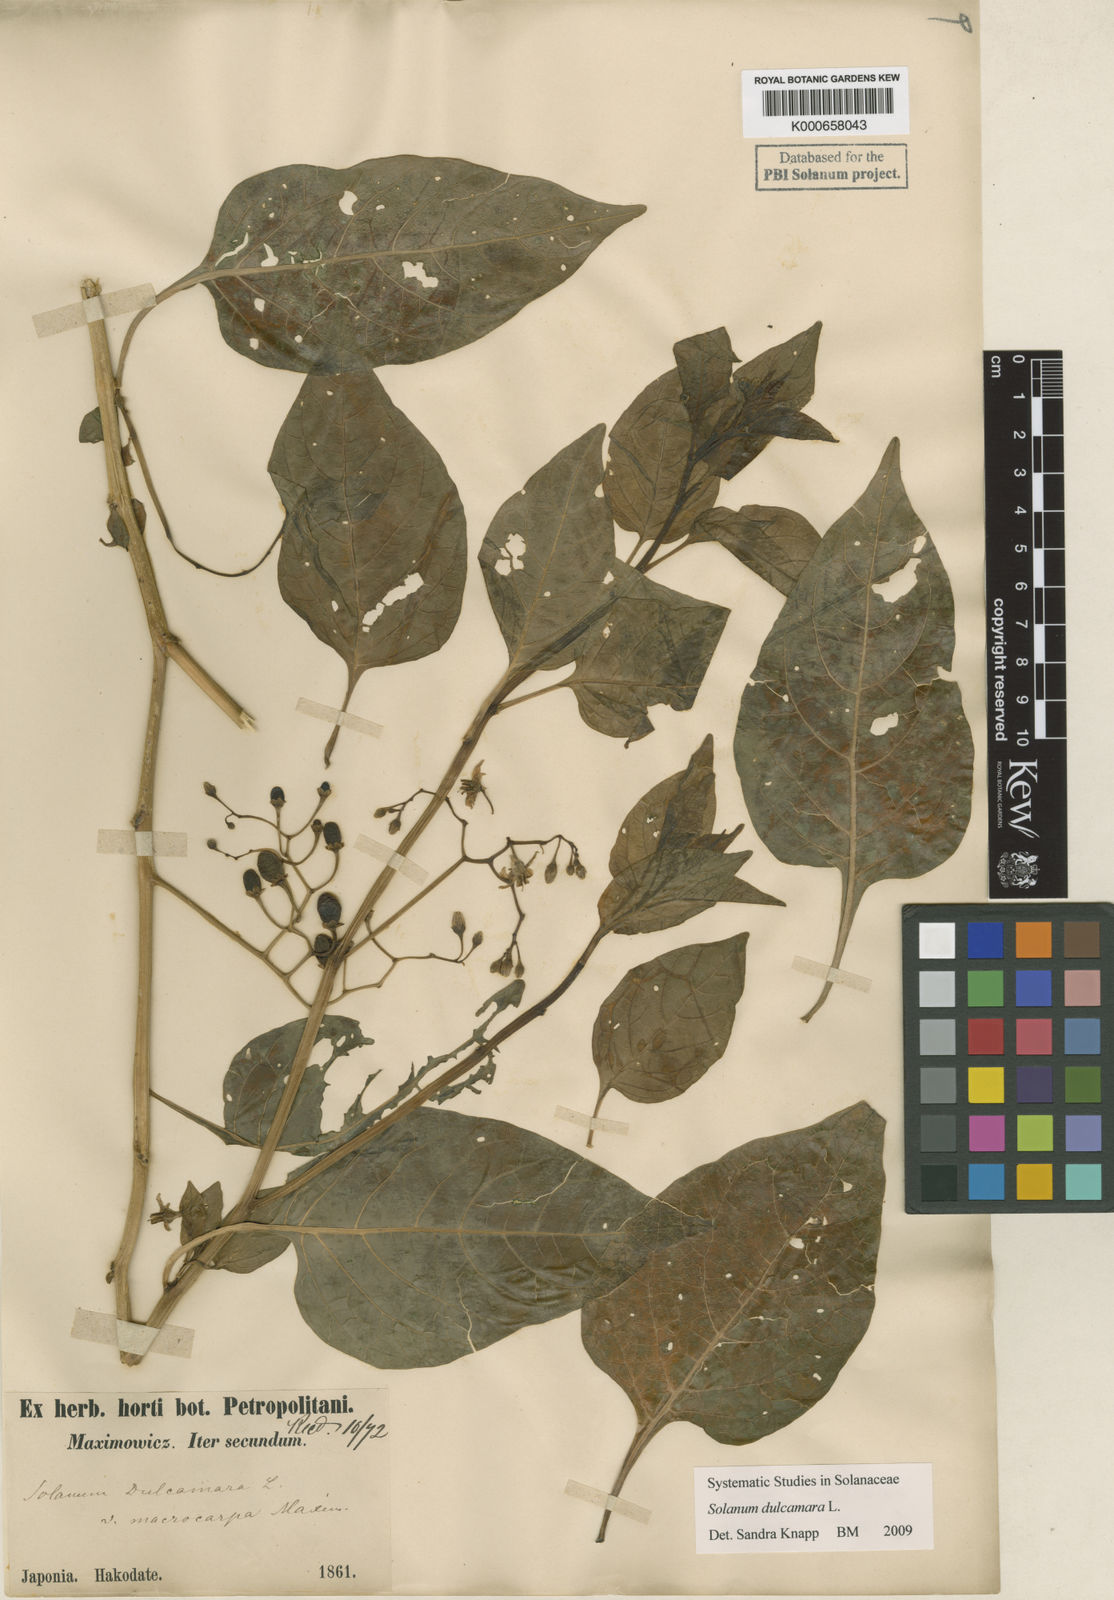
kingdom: Plantae
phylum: Tracheophyta
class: Magnoliopsida
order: Solanales
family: Solanaceae
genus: Solanum
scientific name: Solanum dulcamara
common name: Climbing nightshade
